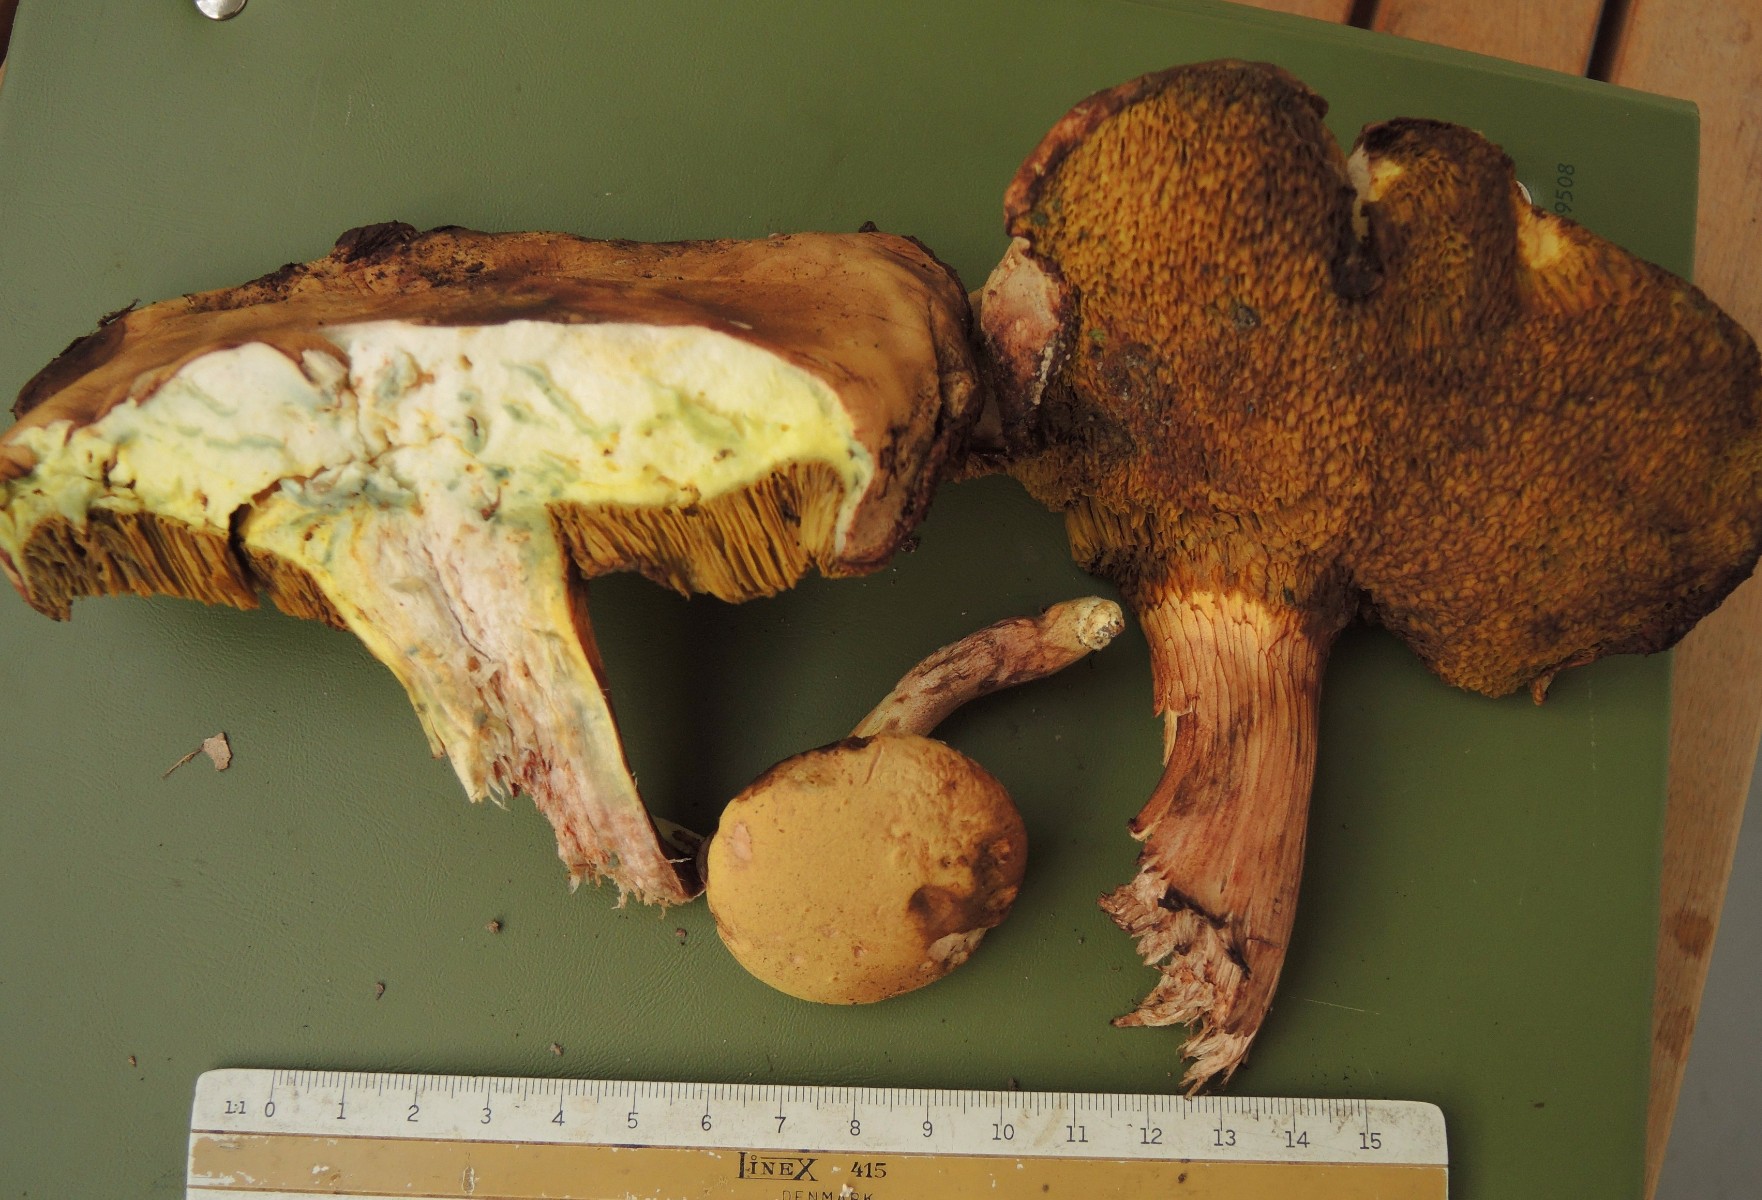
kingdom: Fungi
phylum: Basidiomycota
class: Agaricomycetes
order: Boletales
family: Boletaceae
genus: Xerocomus
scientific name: Xerocomus subtomentosus
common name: filtet rørhat
